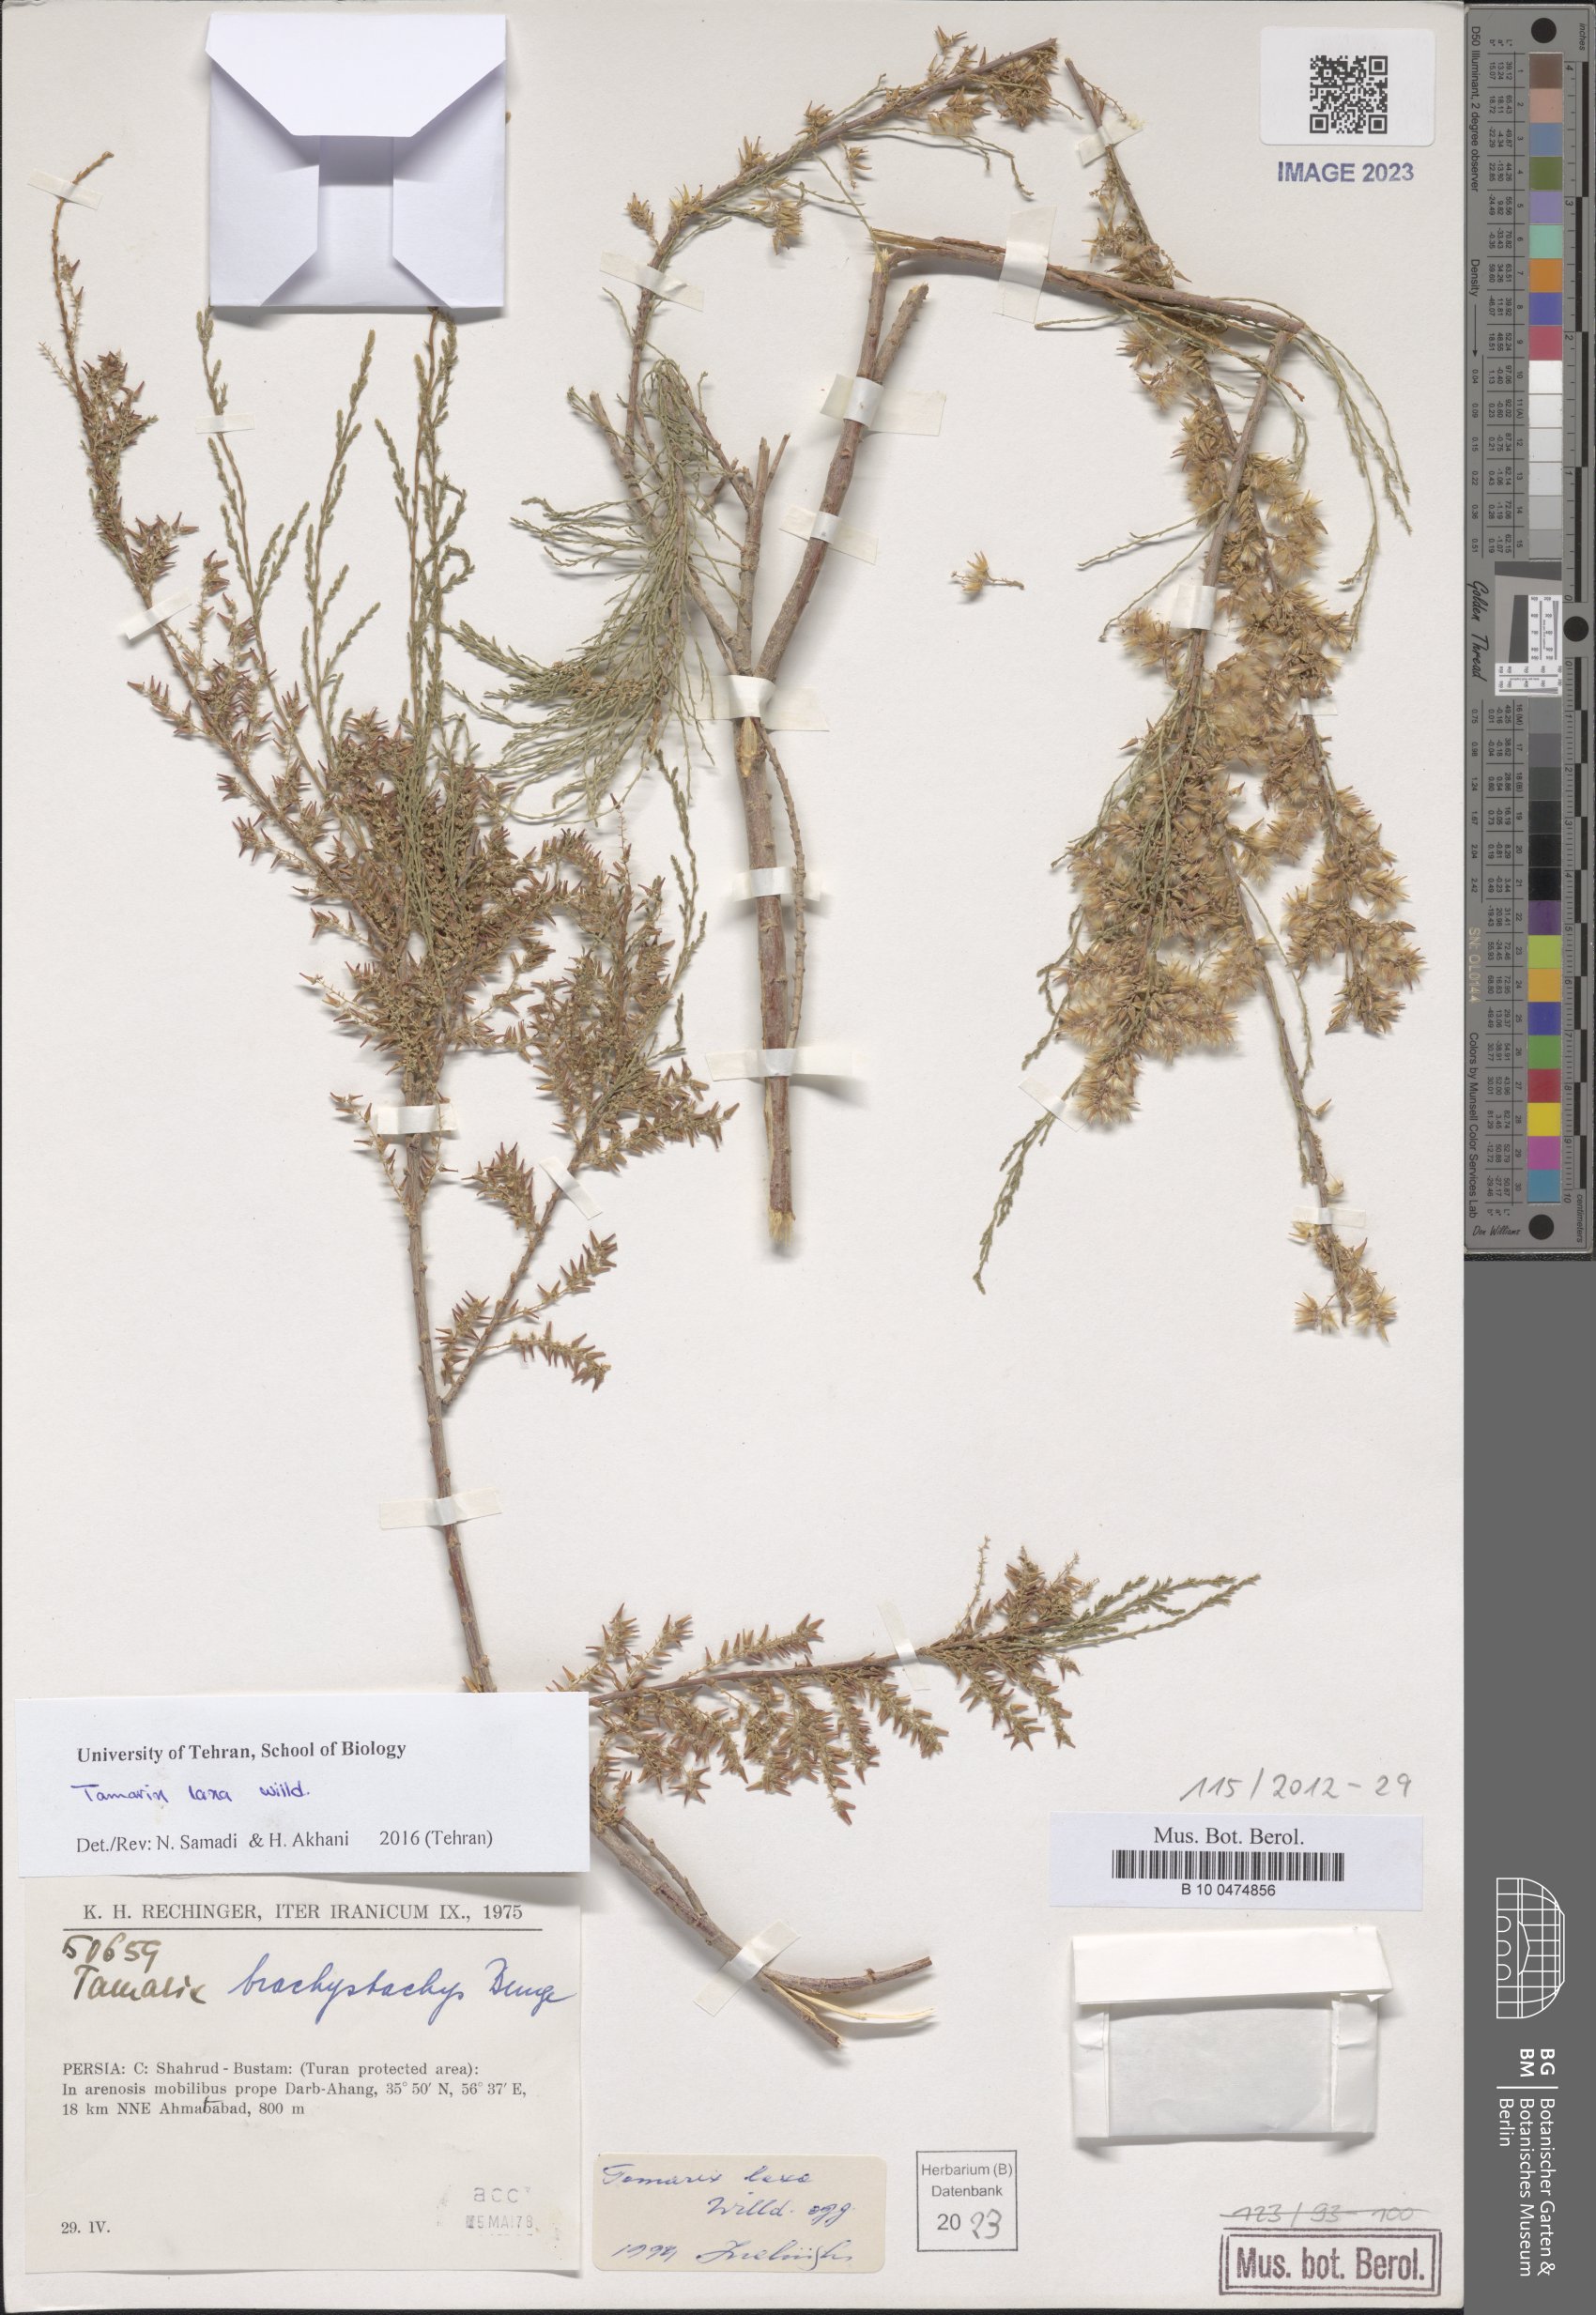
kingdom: Plantae
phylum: Tracheophyta
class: Magnoliopsida
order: Caryophyllales
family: Tamaricaceae
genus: Tamarix
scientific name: Tamarix laxa
